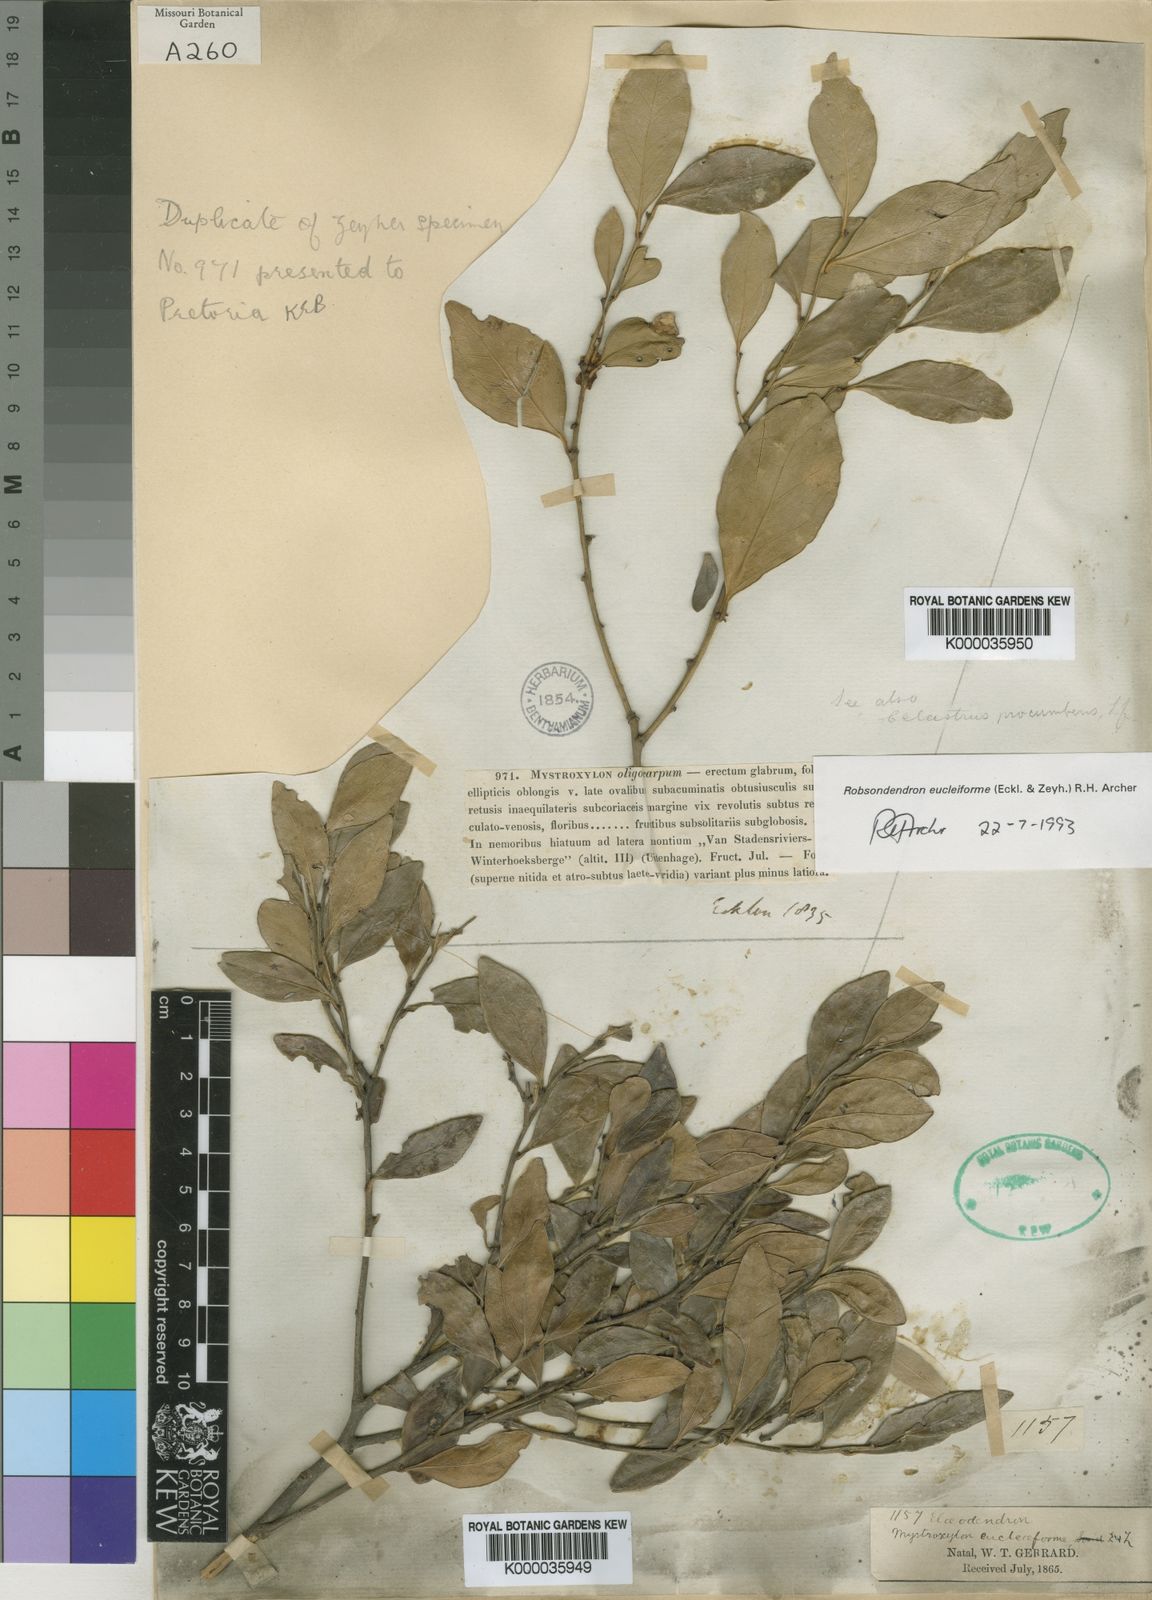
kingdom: Plantae
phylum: Tracheophyta
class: Magnoliopsida
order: Celastrales
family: Celastraceae
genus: Robsonodendron
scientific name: Robsonodendron eucleiforme
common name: Mock silky-bark
